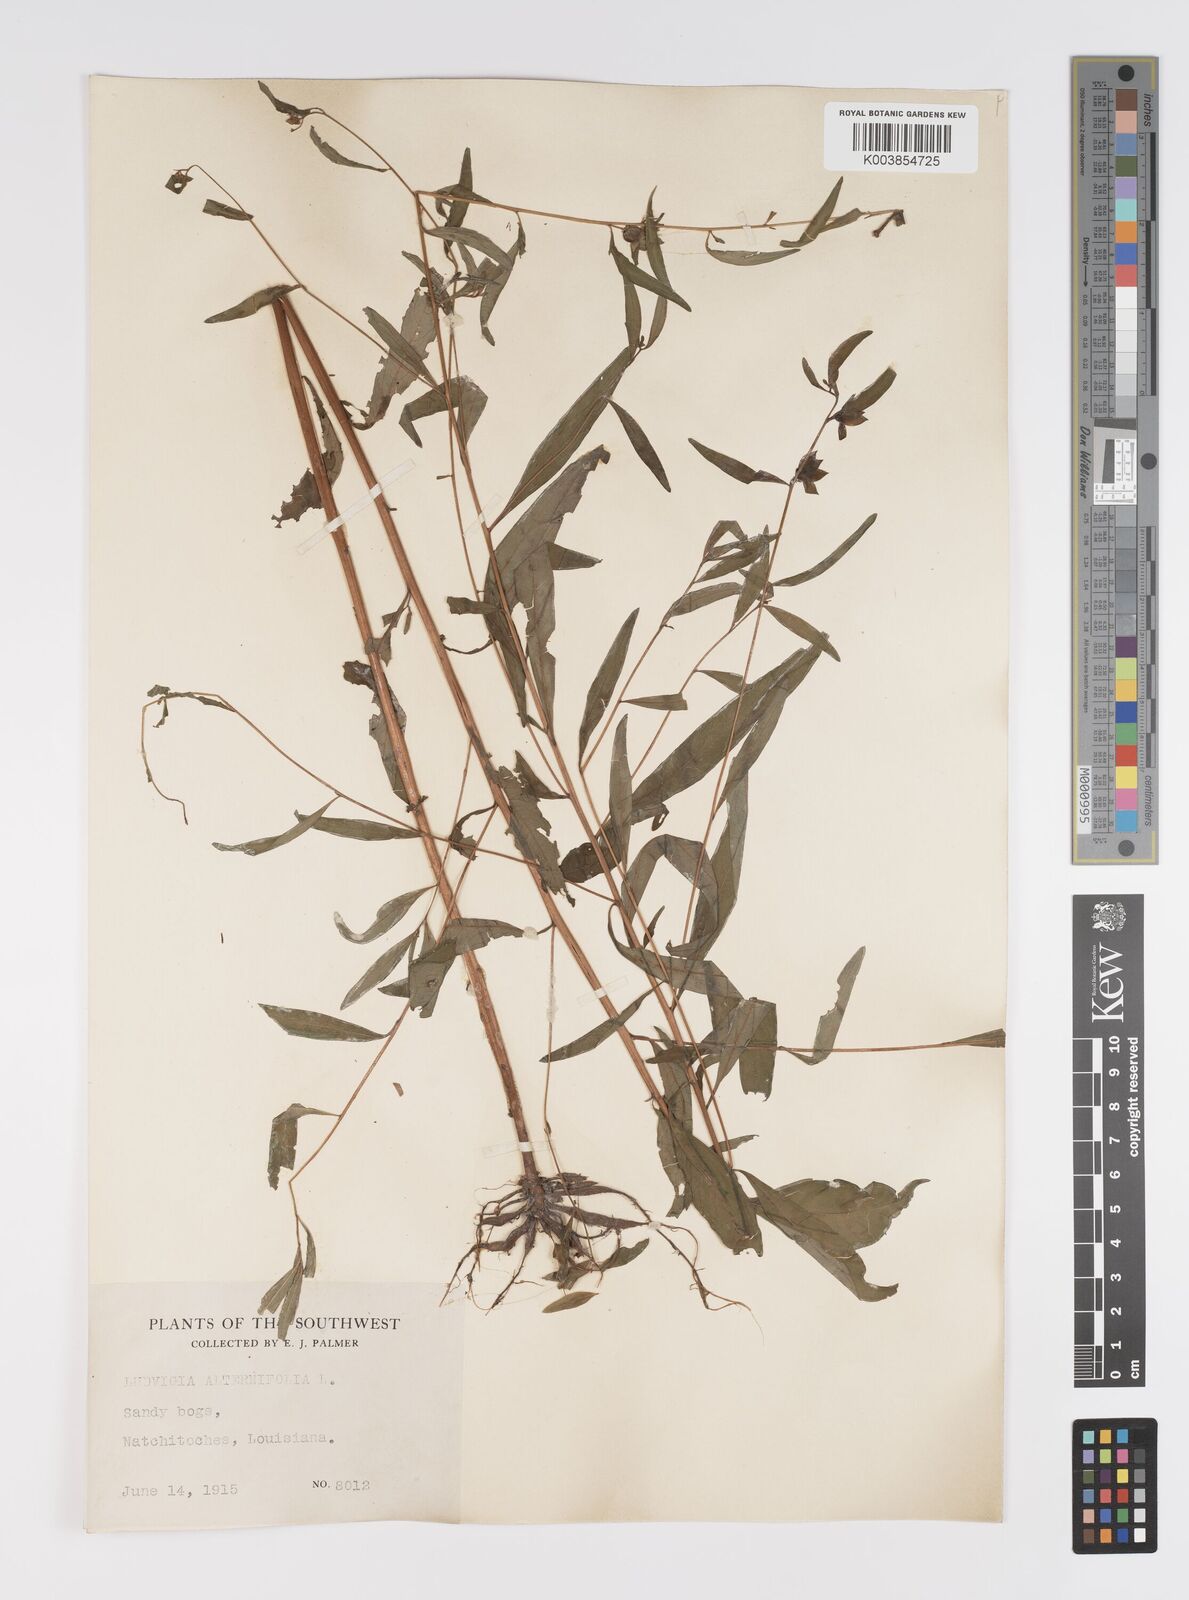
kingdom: Plantae
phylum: Tracheophyta
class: Magnoliopsida
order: Myrtales
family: Onagraceae
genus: Ludwigia
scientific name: Ludwigia alternifolia
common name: Rattlebox
